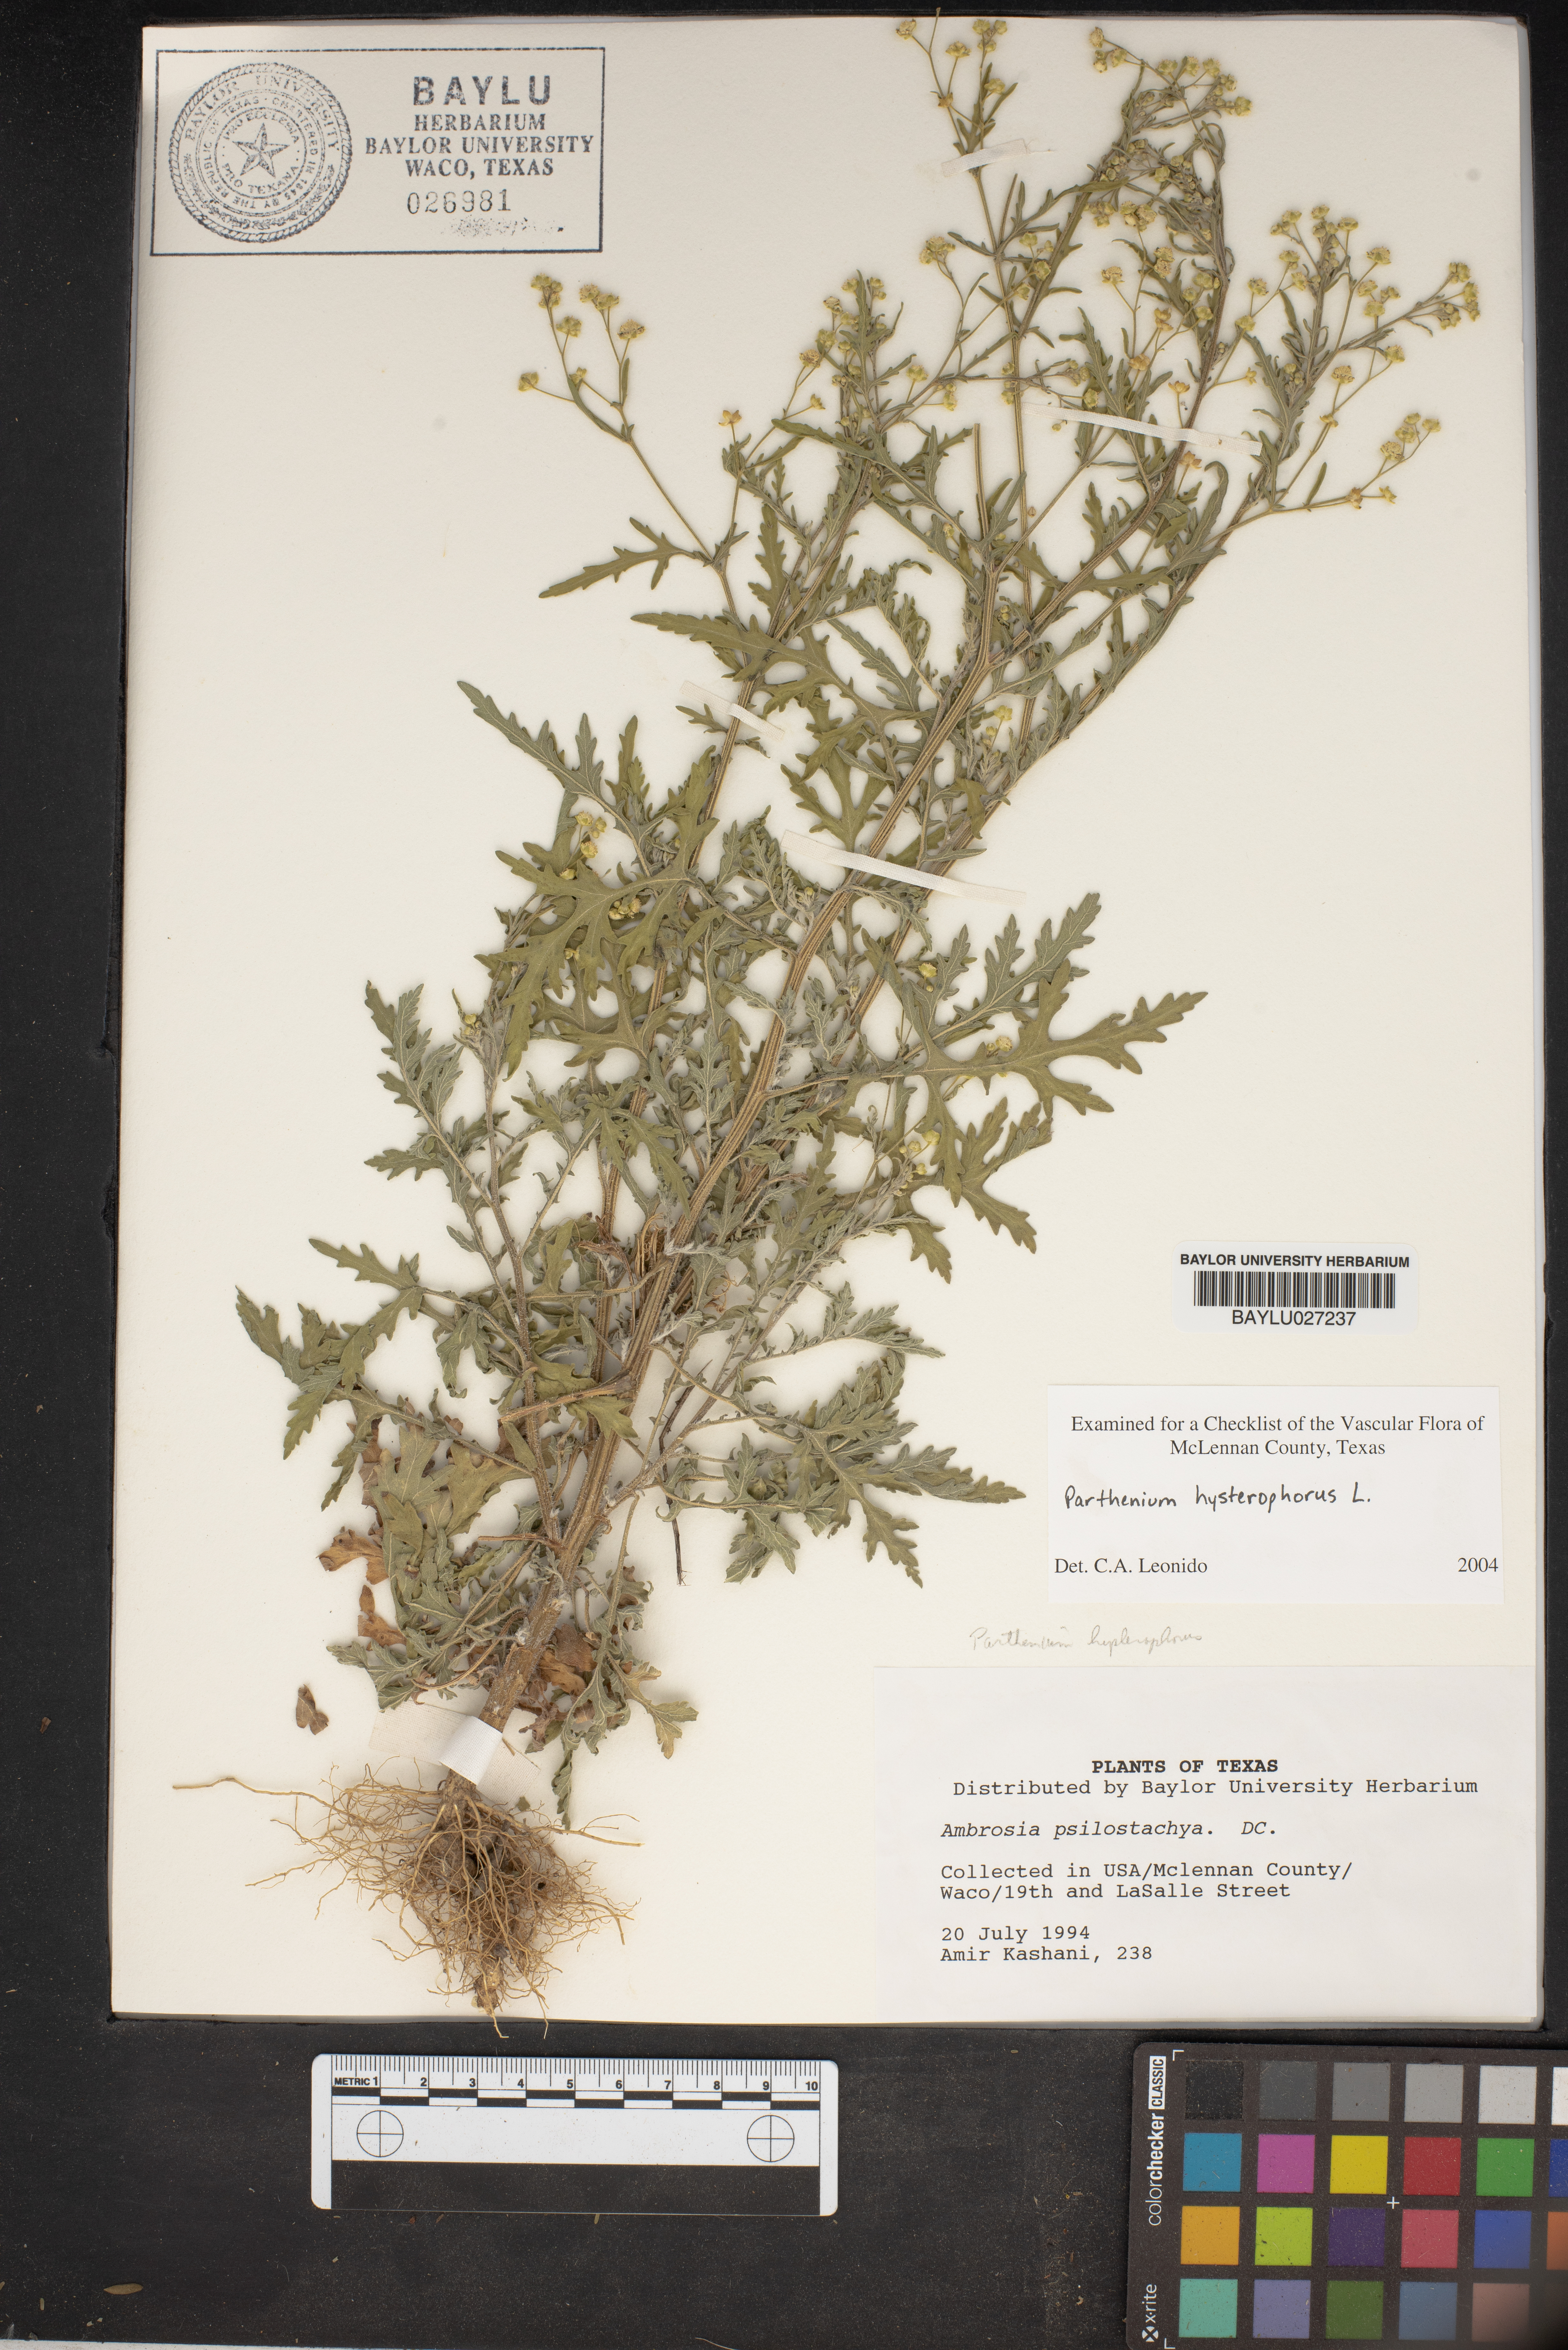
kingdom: Plantae
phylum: Tracheophyta
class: Magnoliopsida
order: Asterales
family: Asteraceae
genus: Parthenium
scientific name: Parthenium hysterophorus
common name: Santa maria feverfew
